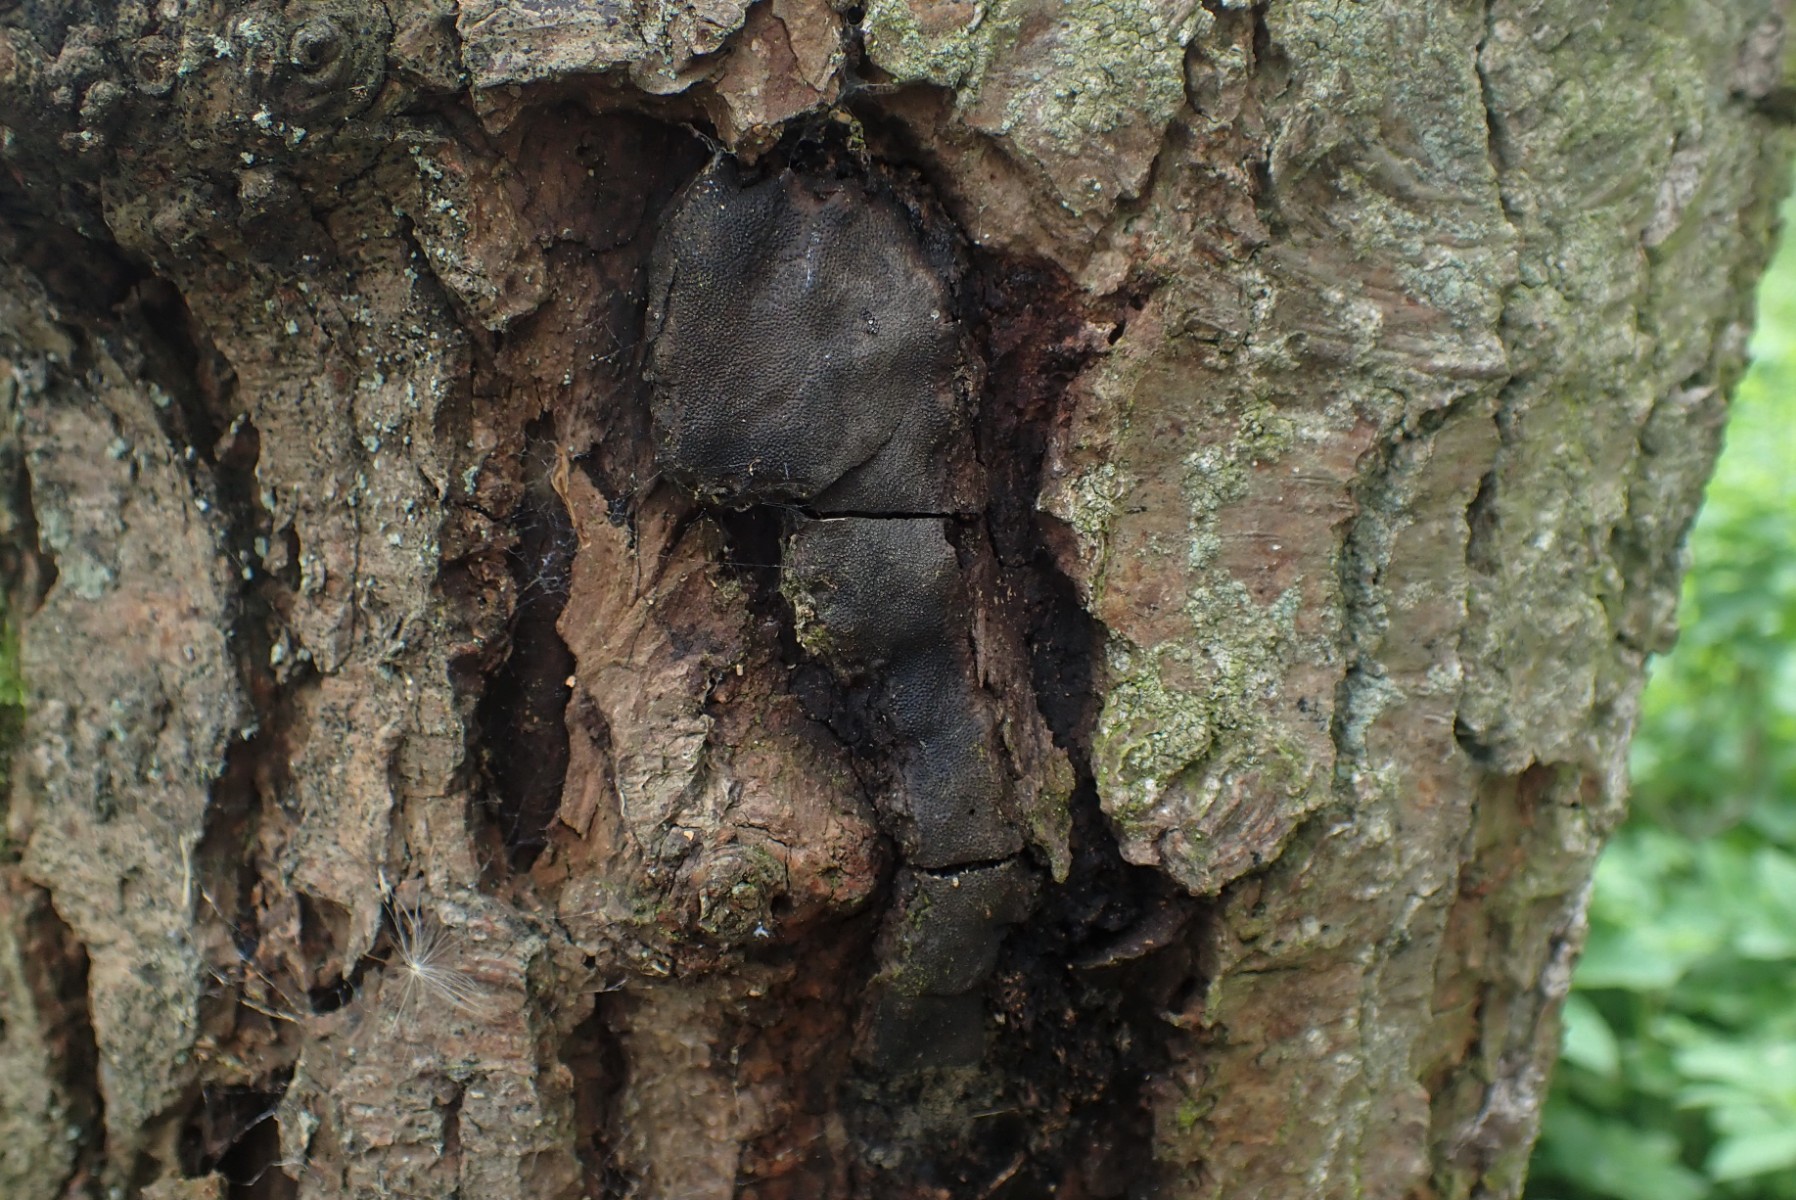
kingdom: Fungi
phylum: Ascomycota
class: Sordariomycetes
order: Boliniales
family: Boliniaceae
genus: Camarops
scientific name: Camarops polysperma
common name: elle-kulsnegl
